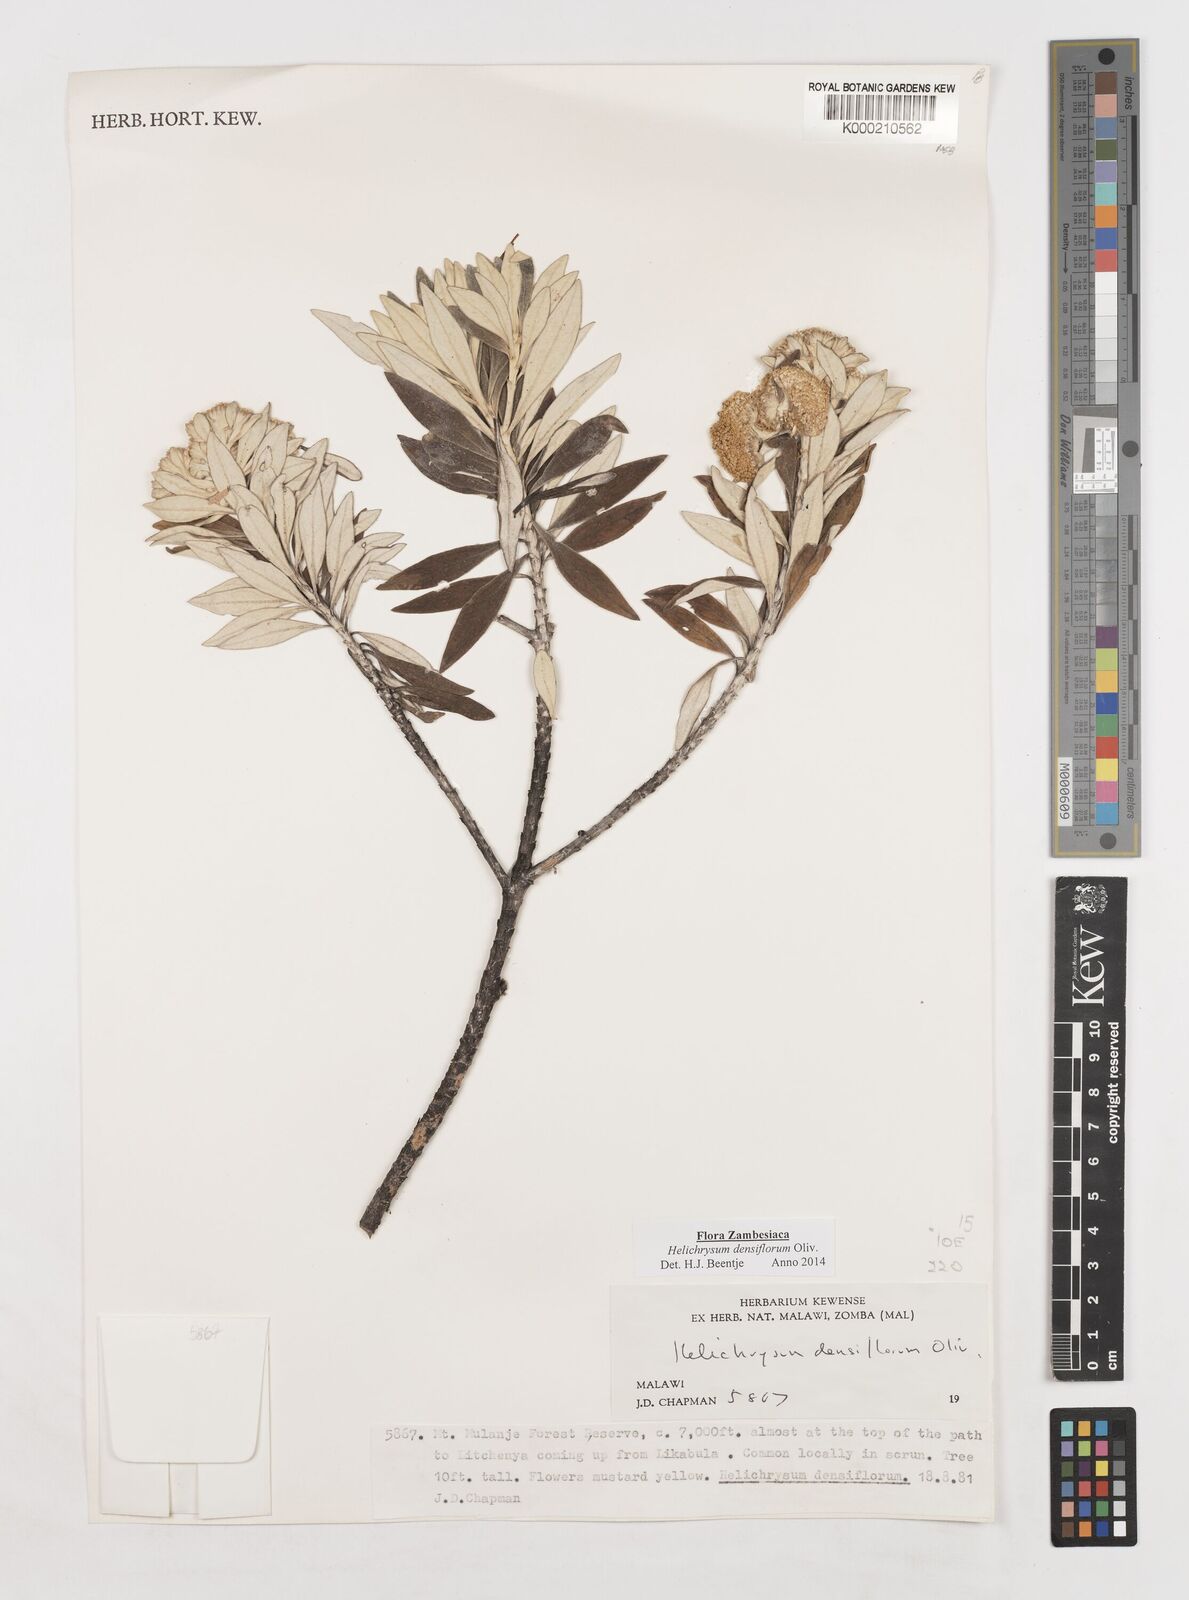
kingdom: Plantae
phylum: Tracheophyta
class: Magnoliopsida
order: Asterales
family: Asteraceae
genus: Helichrysum
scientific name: Helichrysum densiflorum
